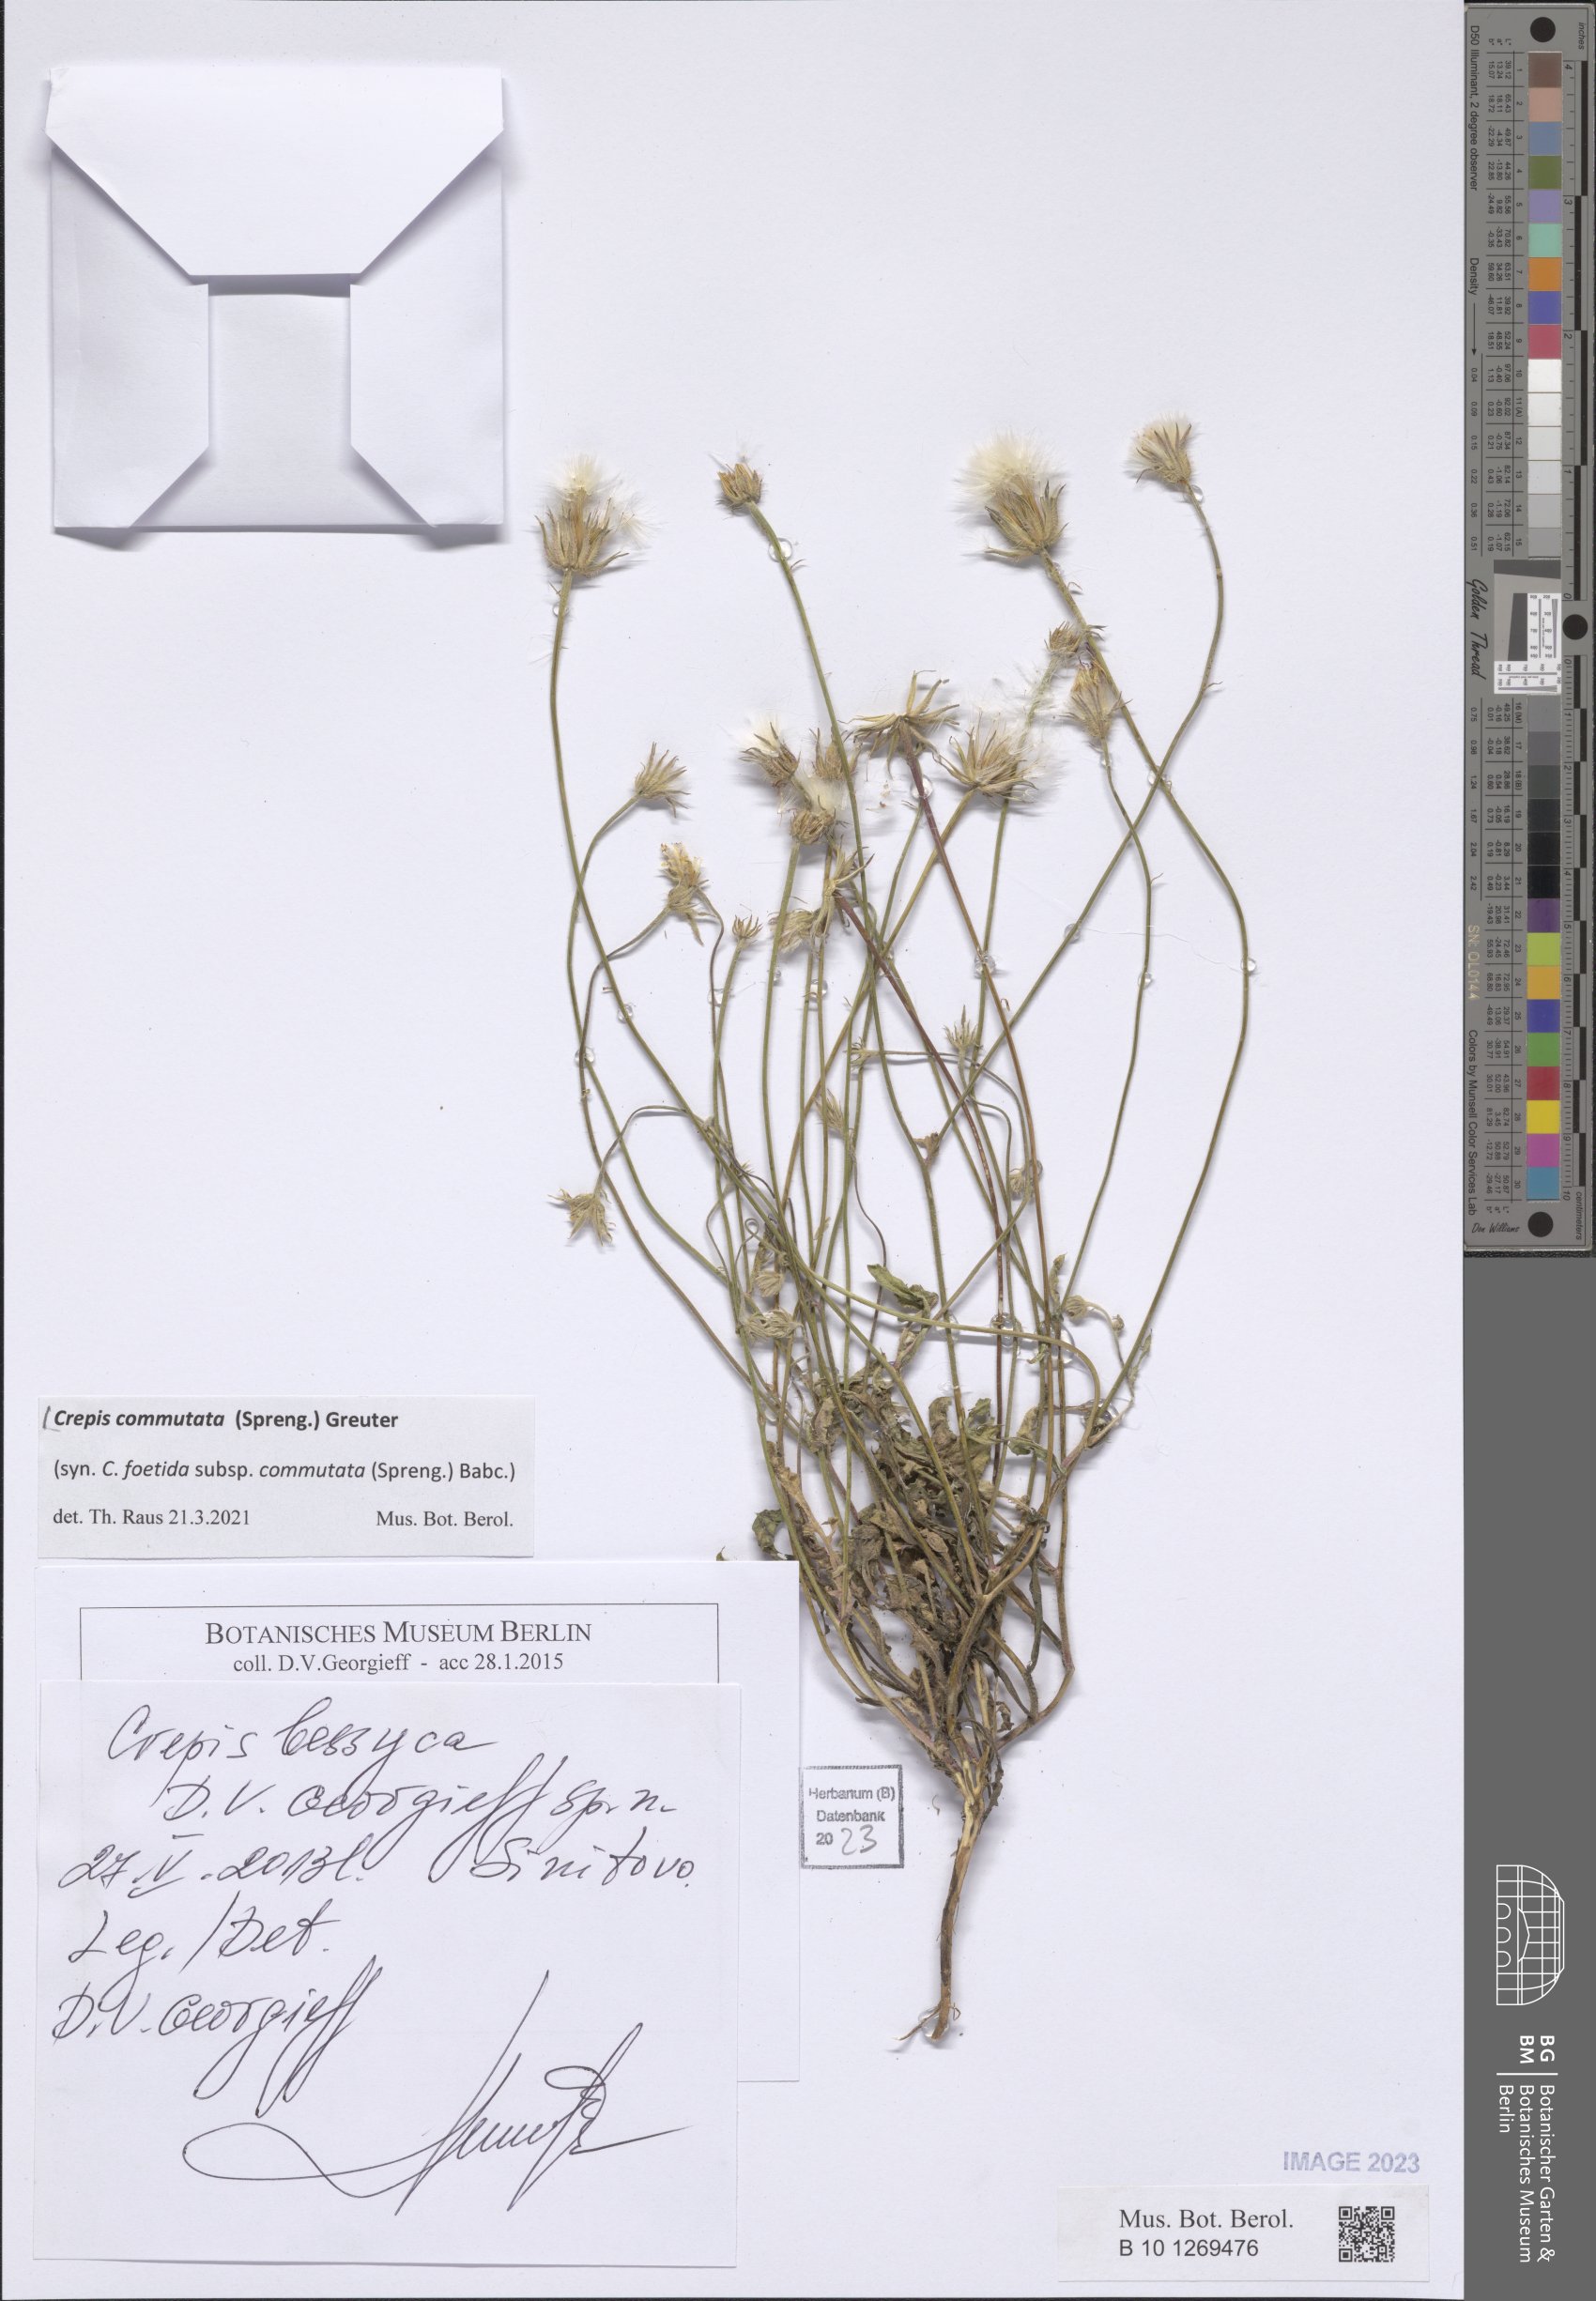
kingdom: Plantae
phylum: Tracheophyta
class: Magnoliopsida
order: Asterales
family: Asteraceae
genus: Crepis
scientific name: Crepis commutata
